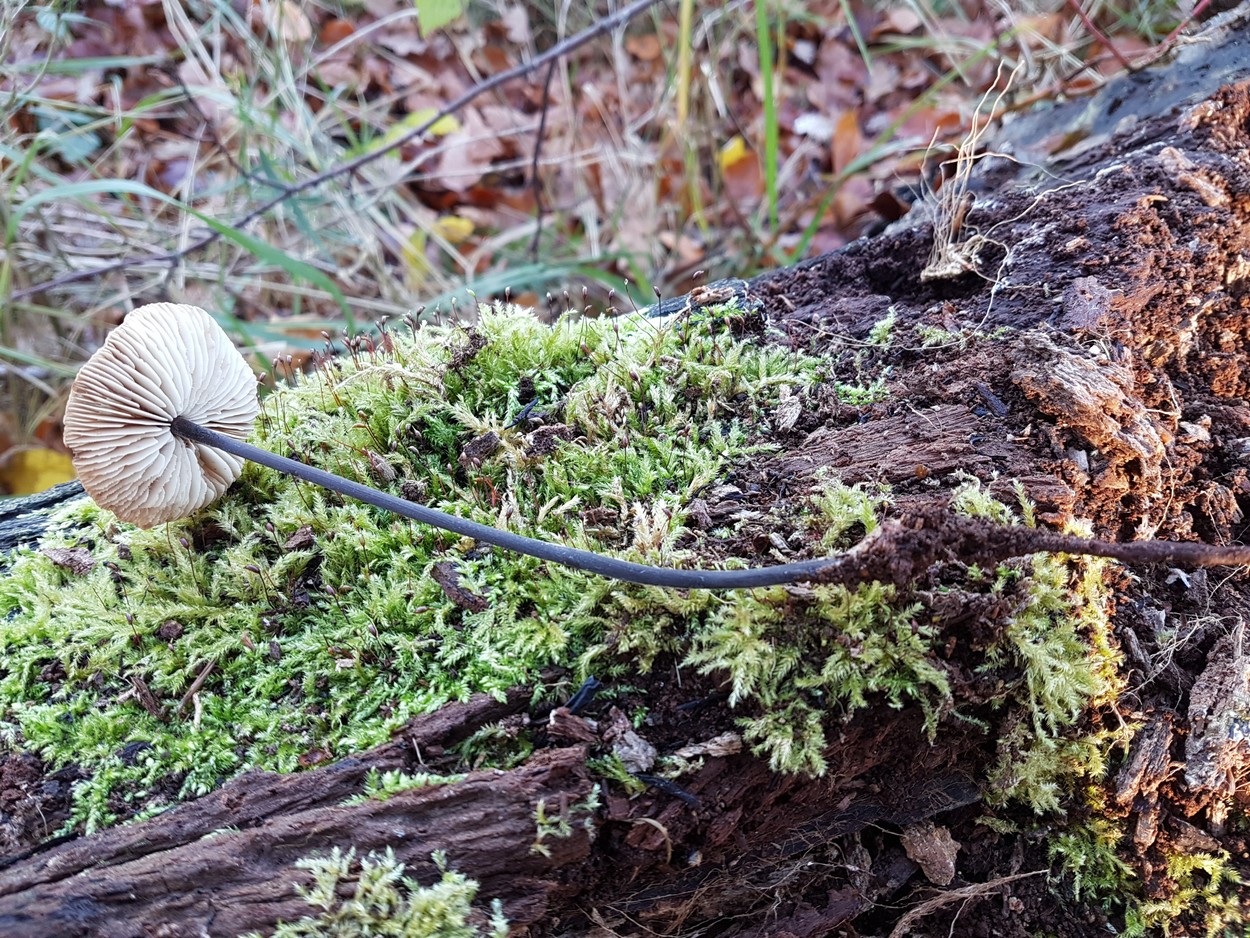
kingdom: Fungi
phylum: Basidiomycota
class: Agaricomycetes
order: Agaricales
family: Omphalotaceae
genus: Mycetinis
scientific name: Mycetinis alliaceus
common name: stor løghat
